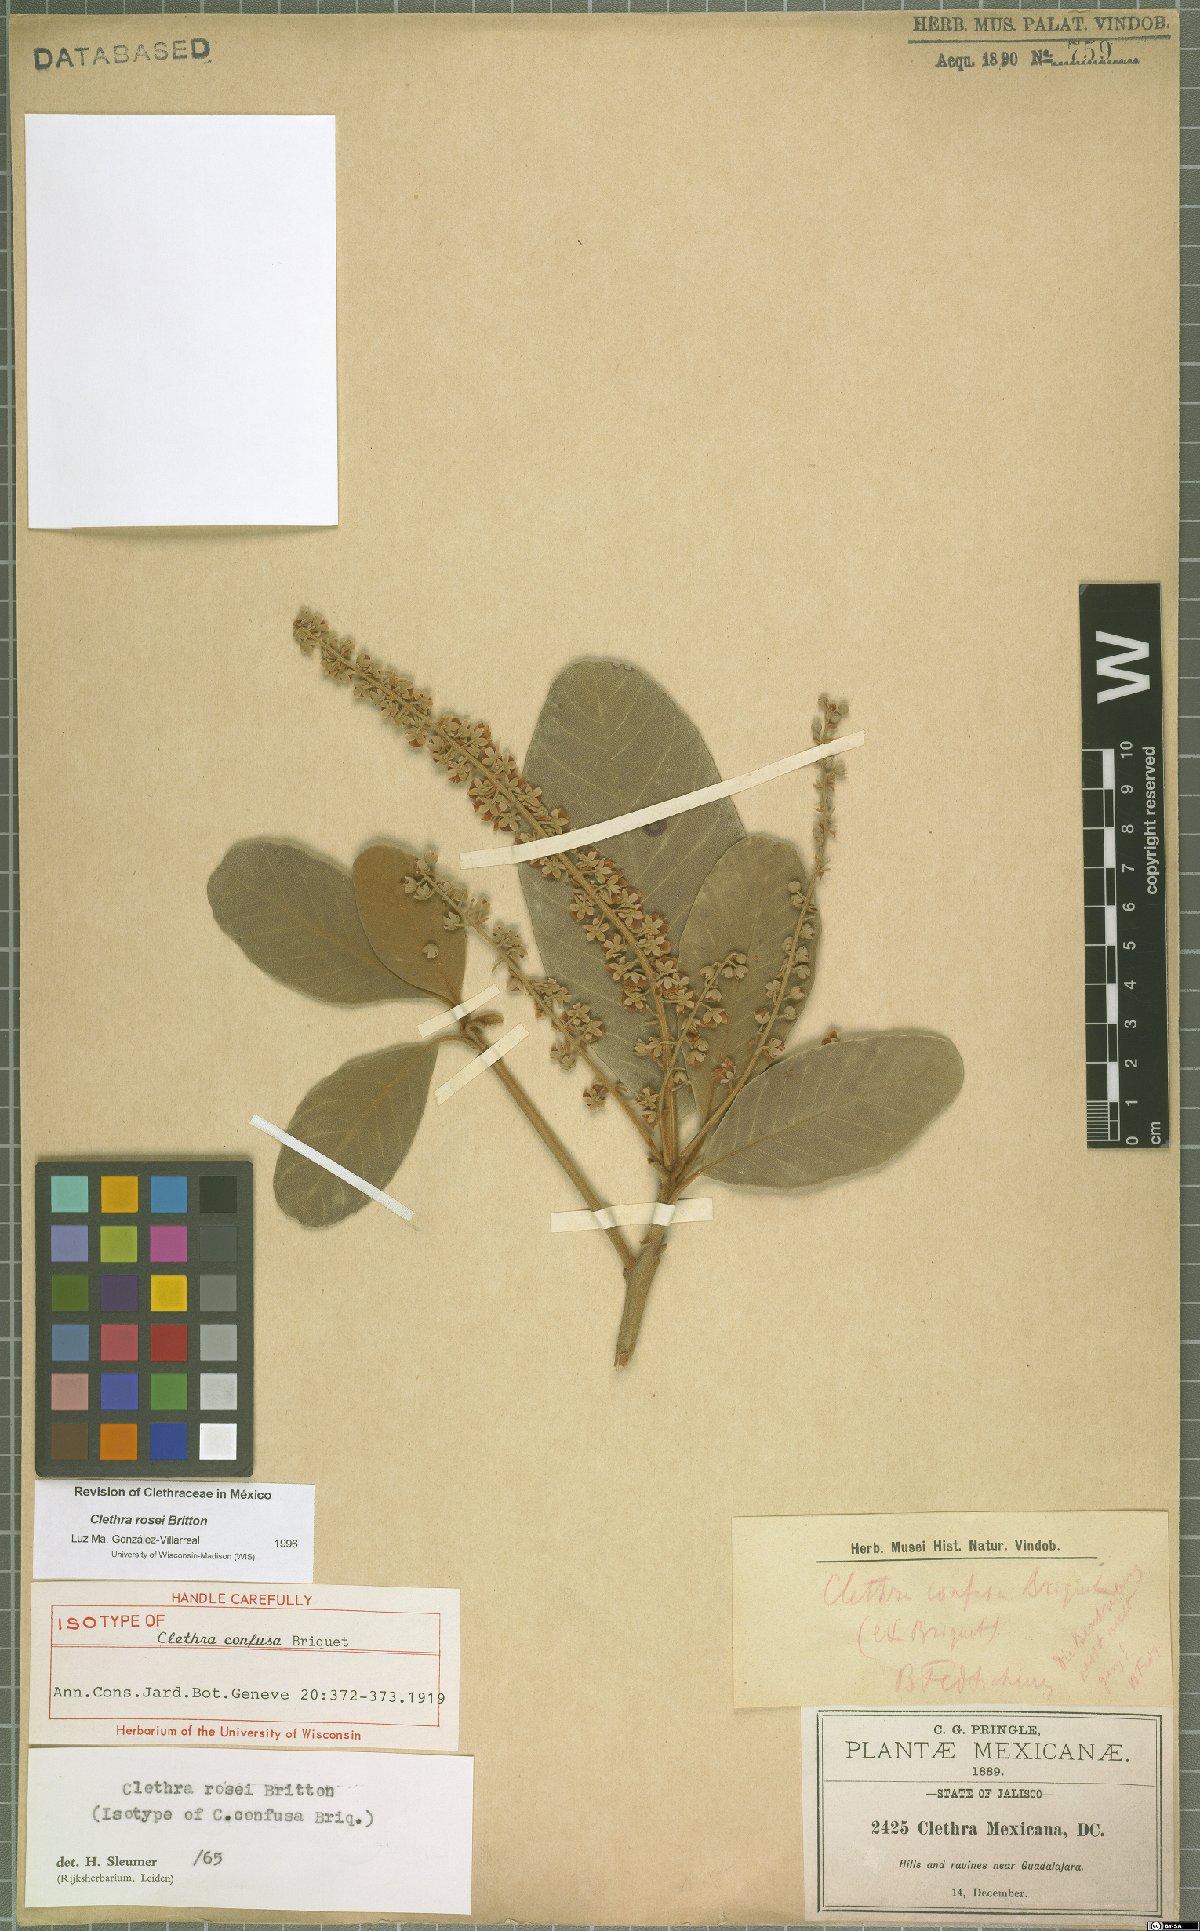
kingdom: Plantae
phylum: Tracheophyta
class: Magnoliopsida
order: Ericales
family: Clethraceae
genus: Clethra
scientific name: Clethra rosei
